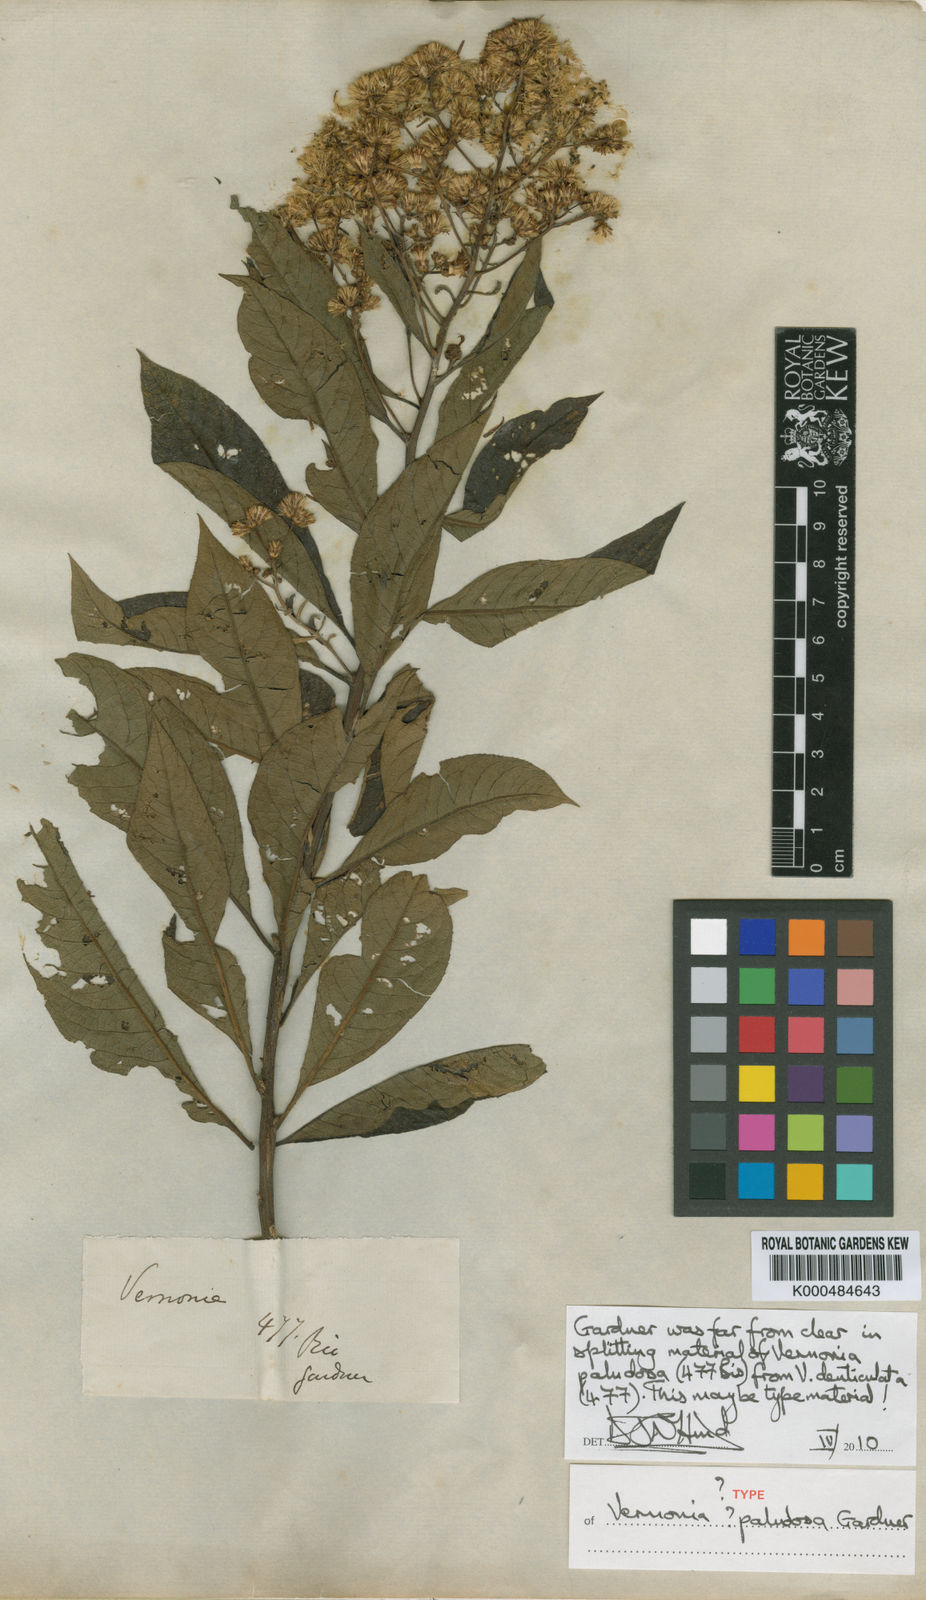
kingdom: Plantae
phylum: Tracheophyta
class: Magnoliopsida
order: Asterales
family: Asteraceae
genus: Vernonanthura
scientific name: Vernonanthura paludosa
